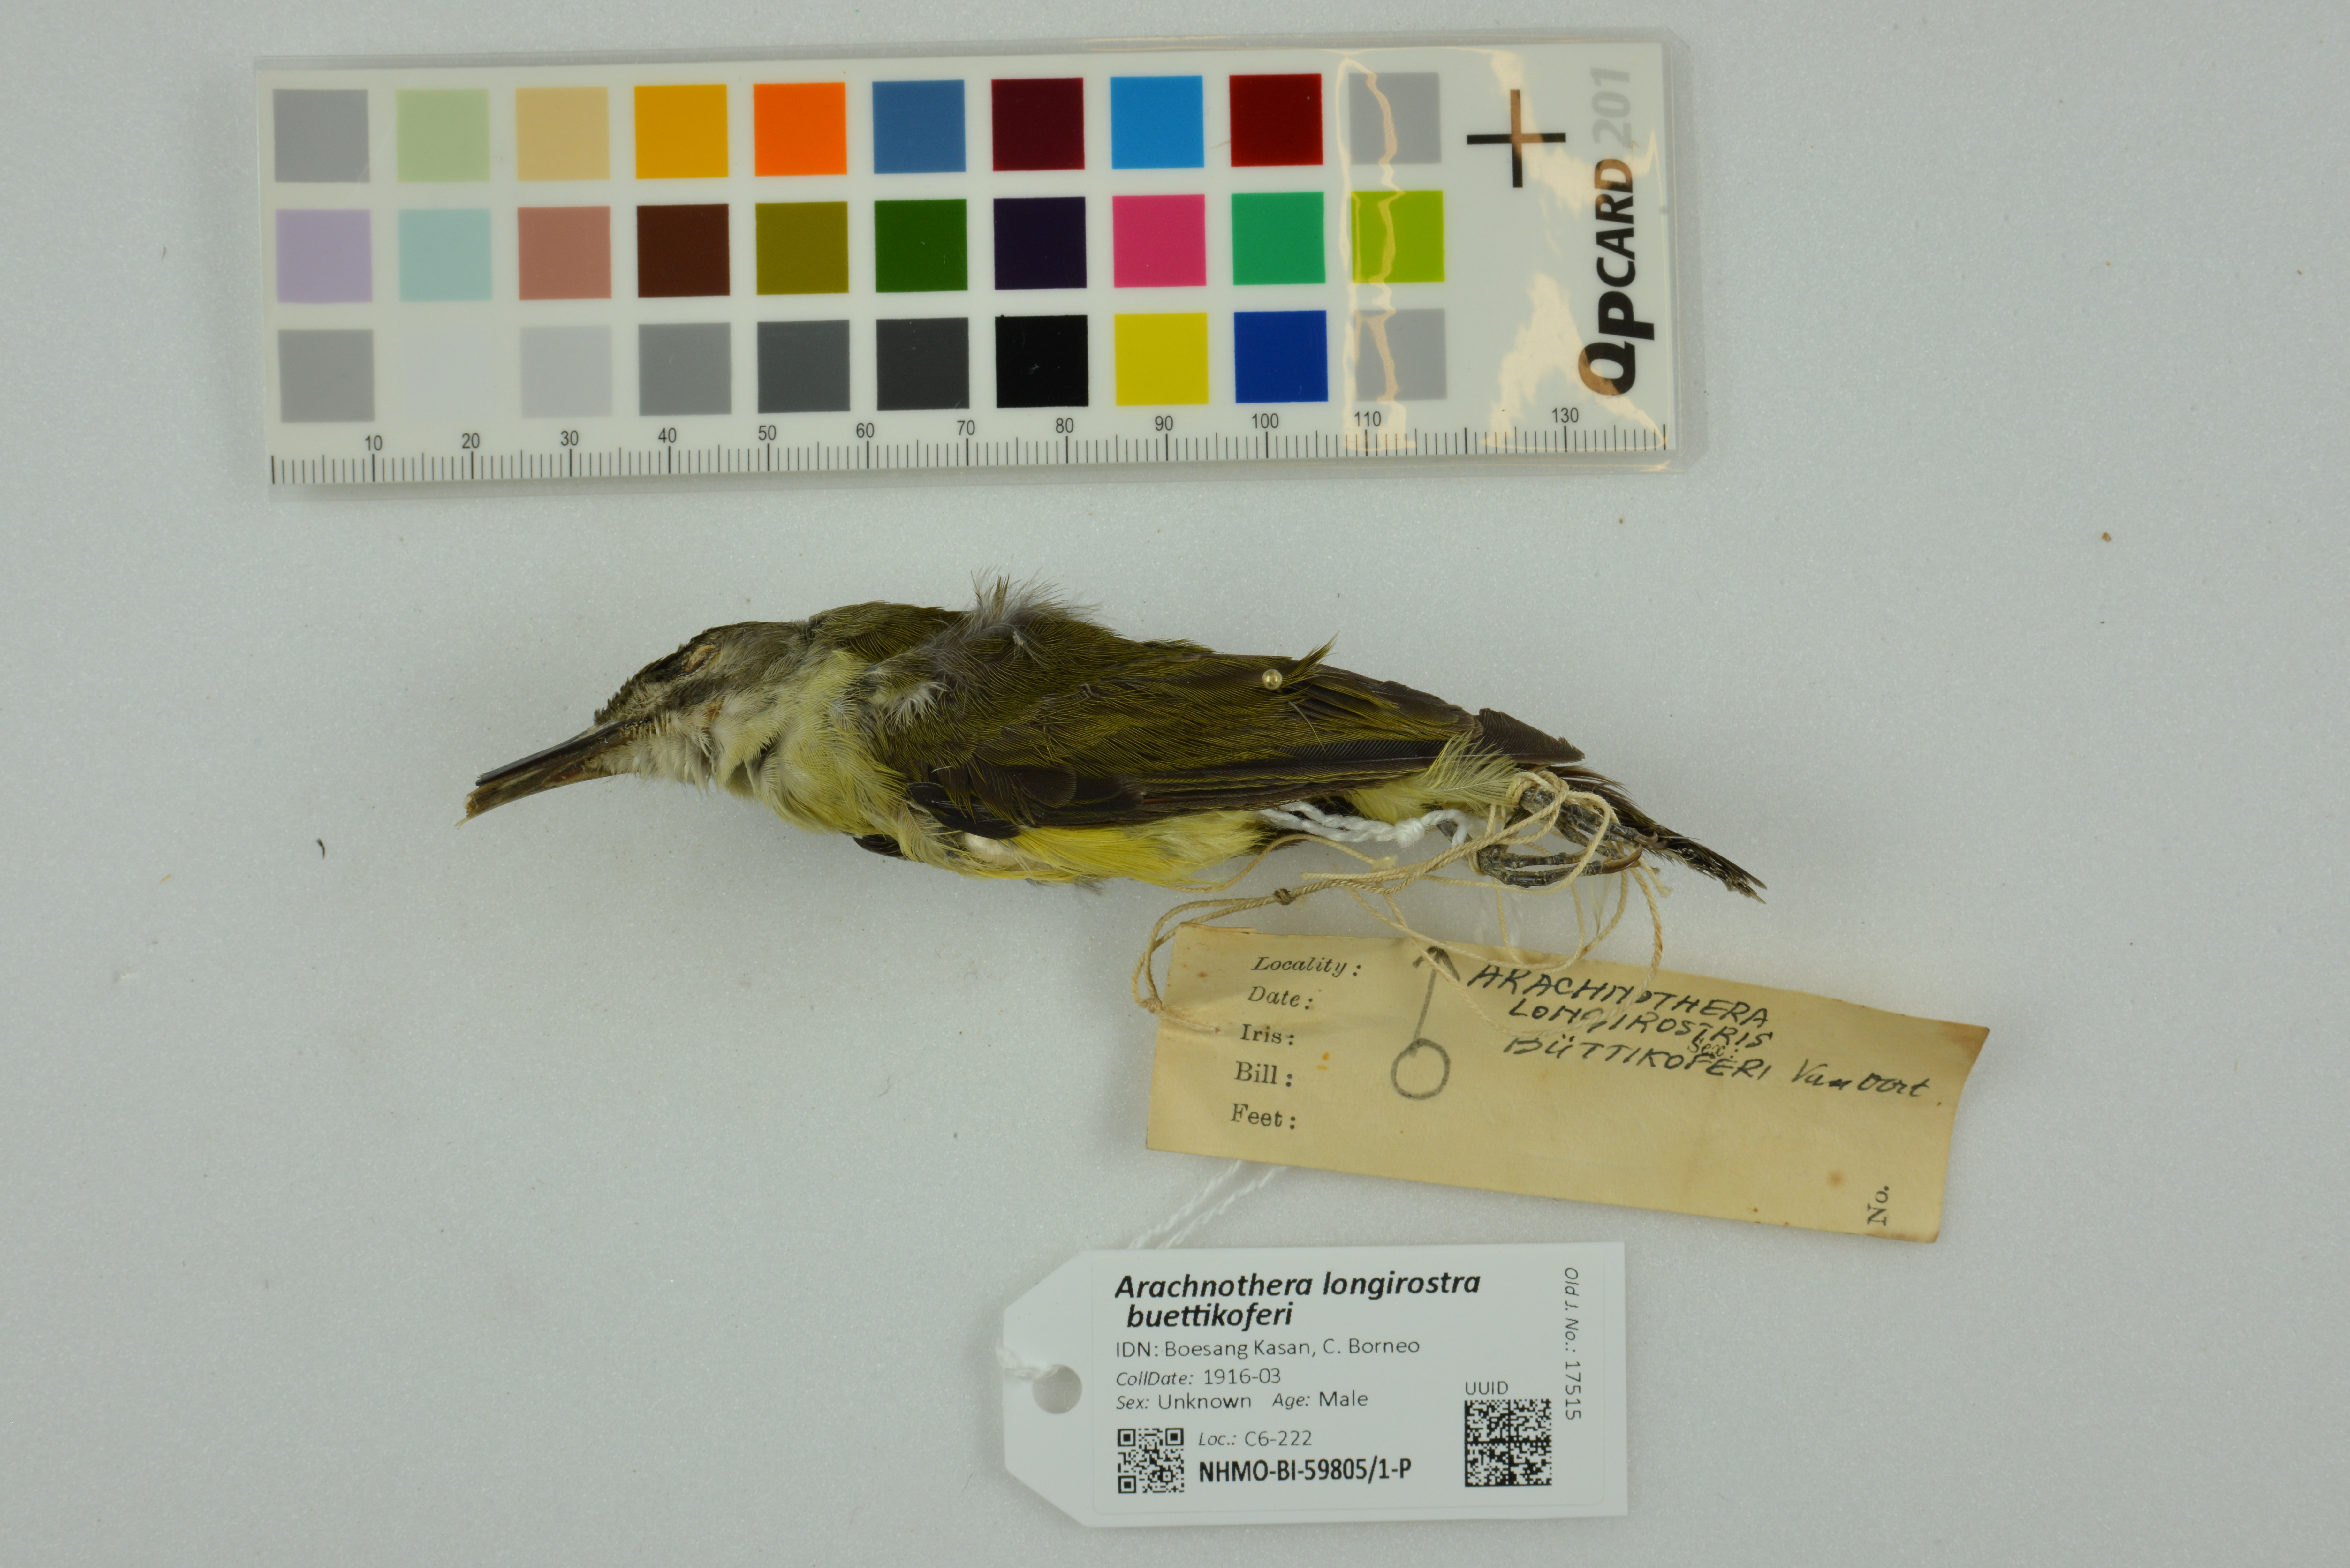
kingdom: Animalia
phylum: Chordata
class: Aves
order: Passeriformes
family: Nectariniidae
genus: Arachnothera
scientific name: Arachnothera longirostra
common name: Little spiderhunter
